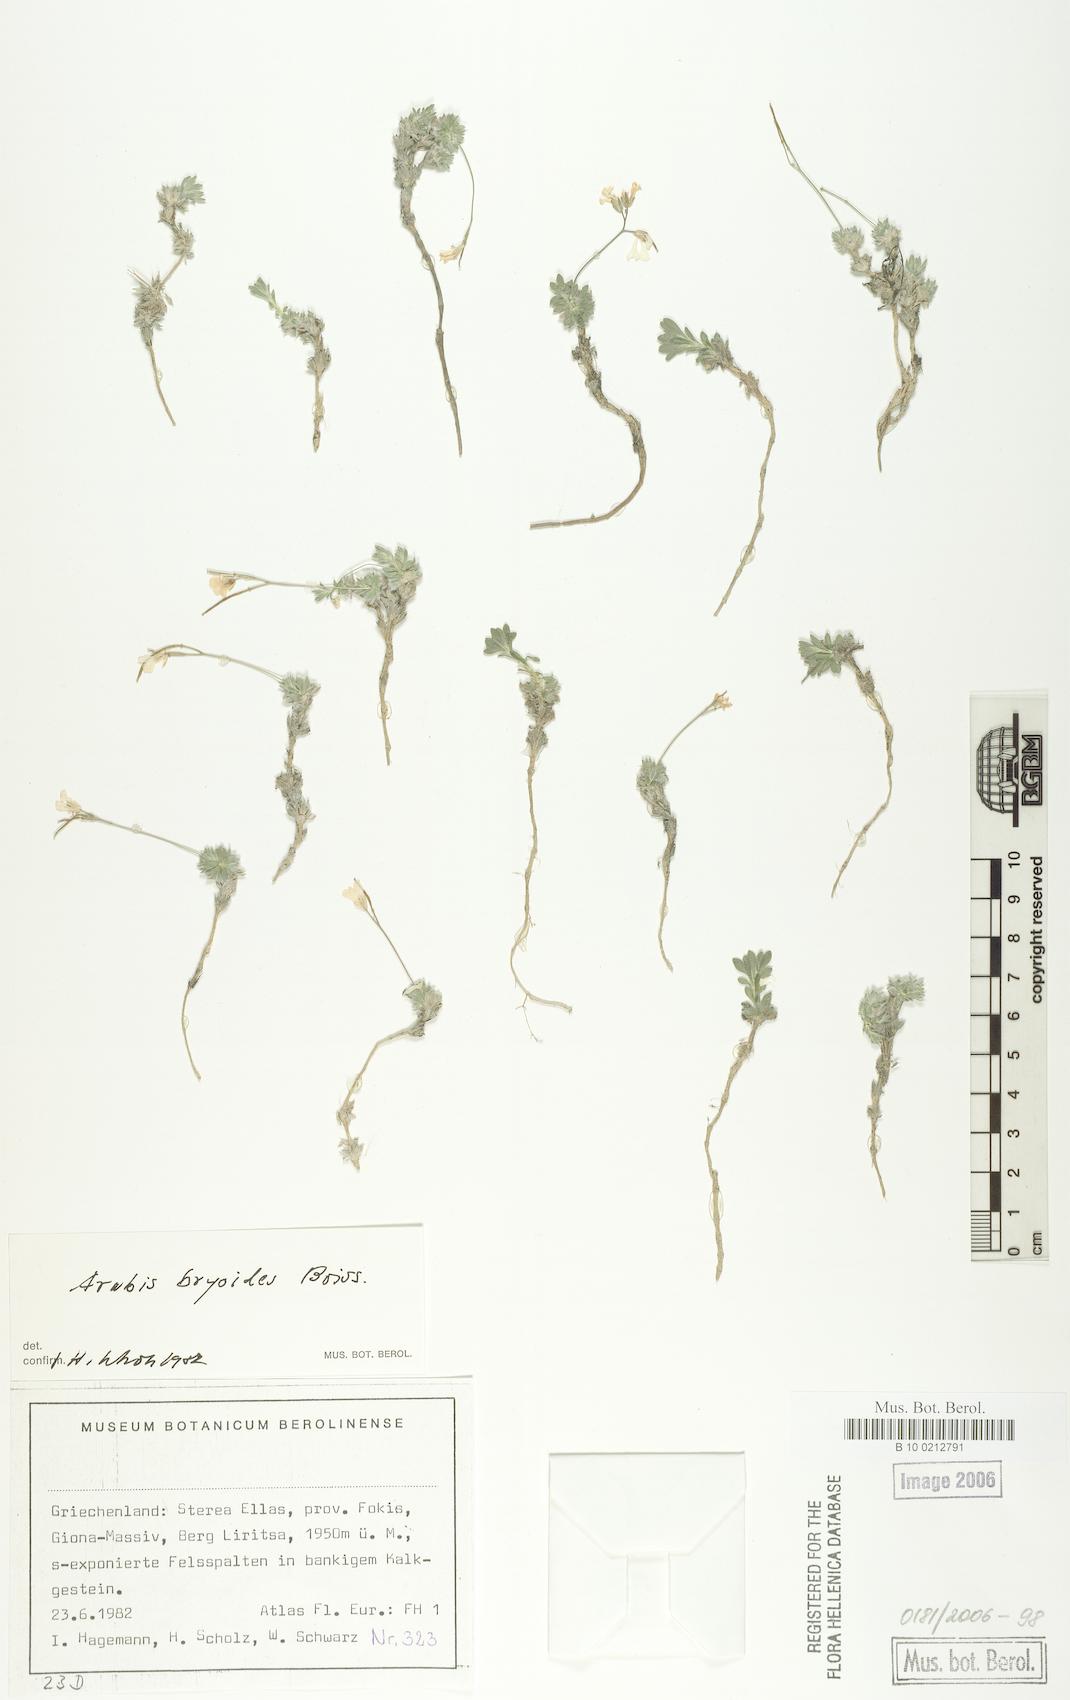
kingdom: Plantae
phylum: Tracheophyta
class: Magnoliopsida
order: Brassicales
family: Brassicaceae
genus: Arabis
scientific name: Arabis bryoides
